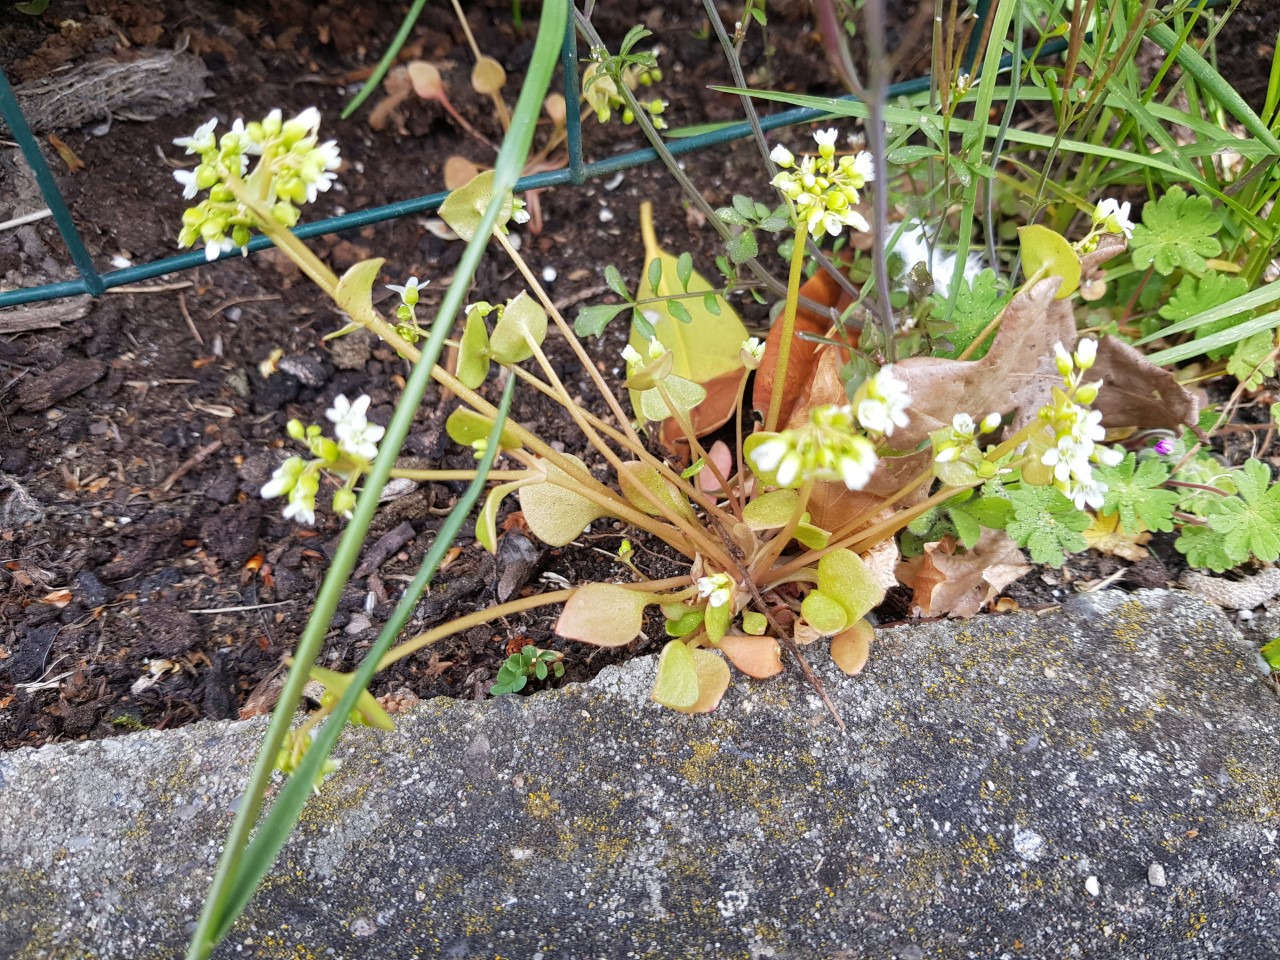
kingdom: Plantae
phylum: Tracheophyta
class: Magnoliopsida
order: Caryophyllales
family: Montiaceae
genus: Claytonia
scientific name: Claytonia perfoliata
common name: Spiselig vinterportulak
